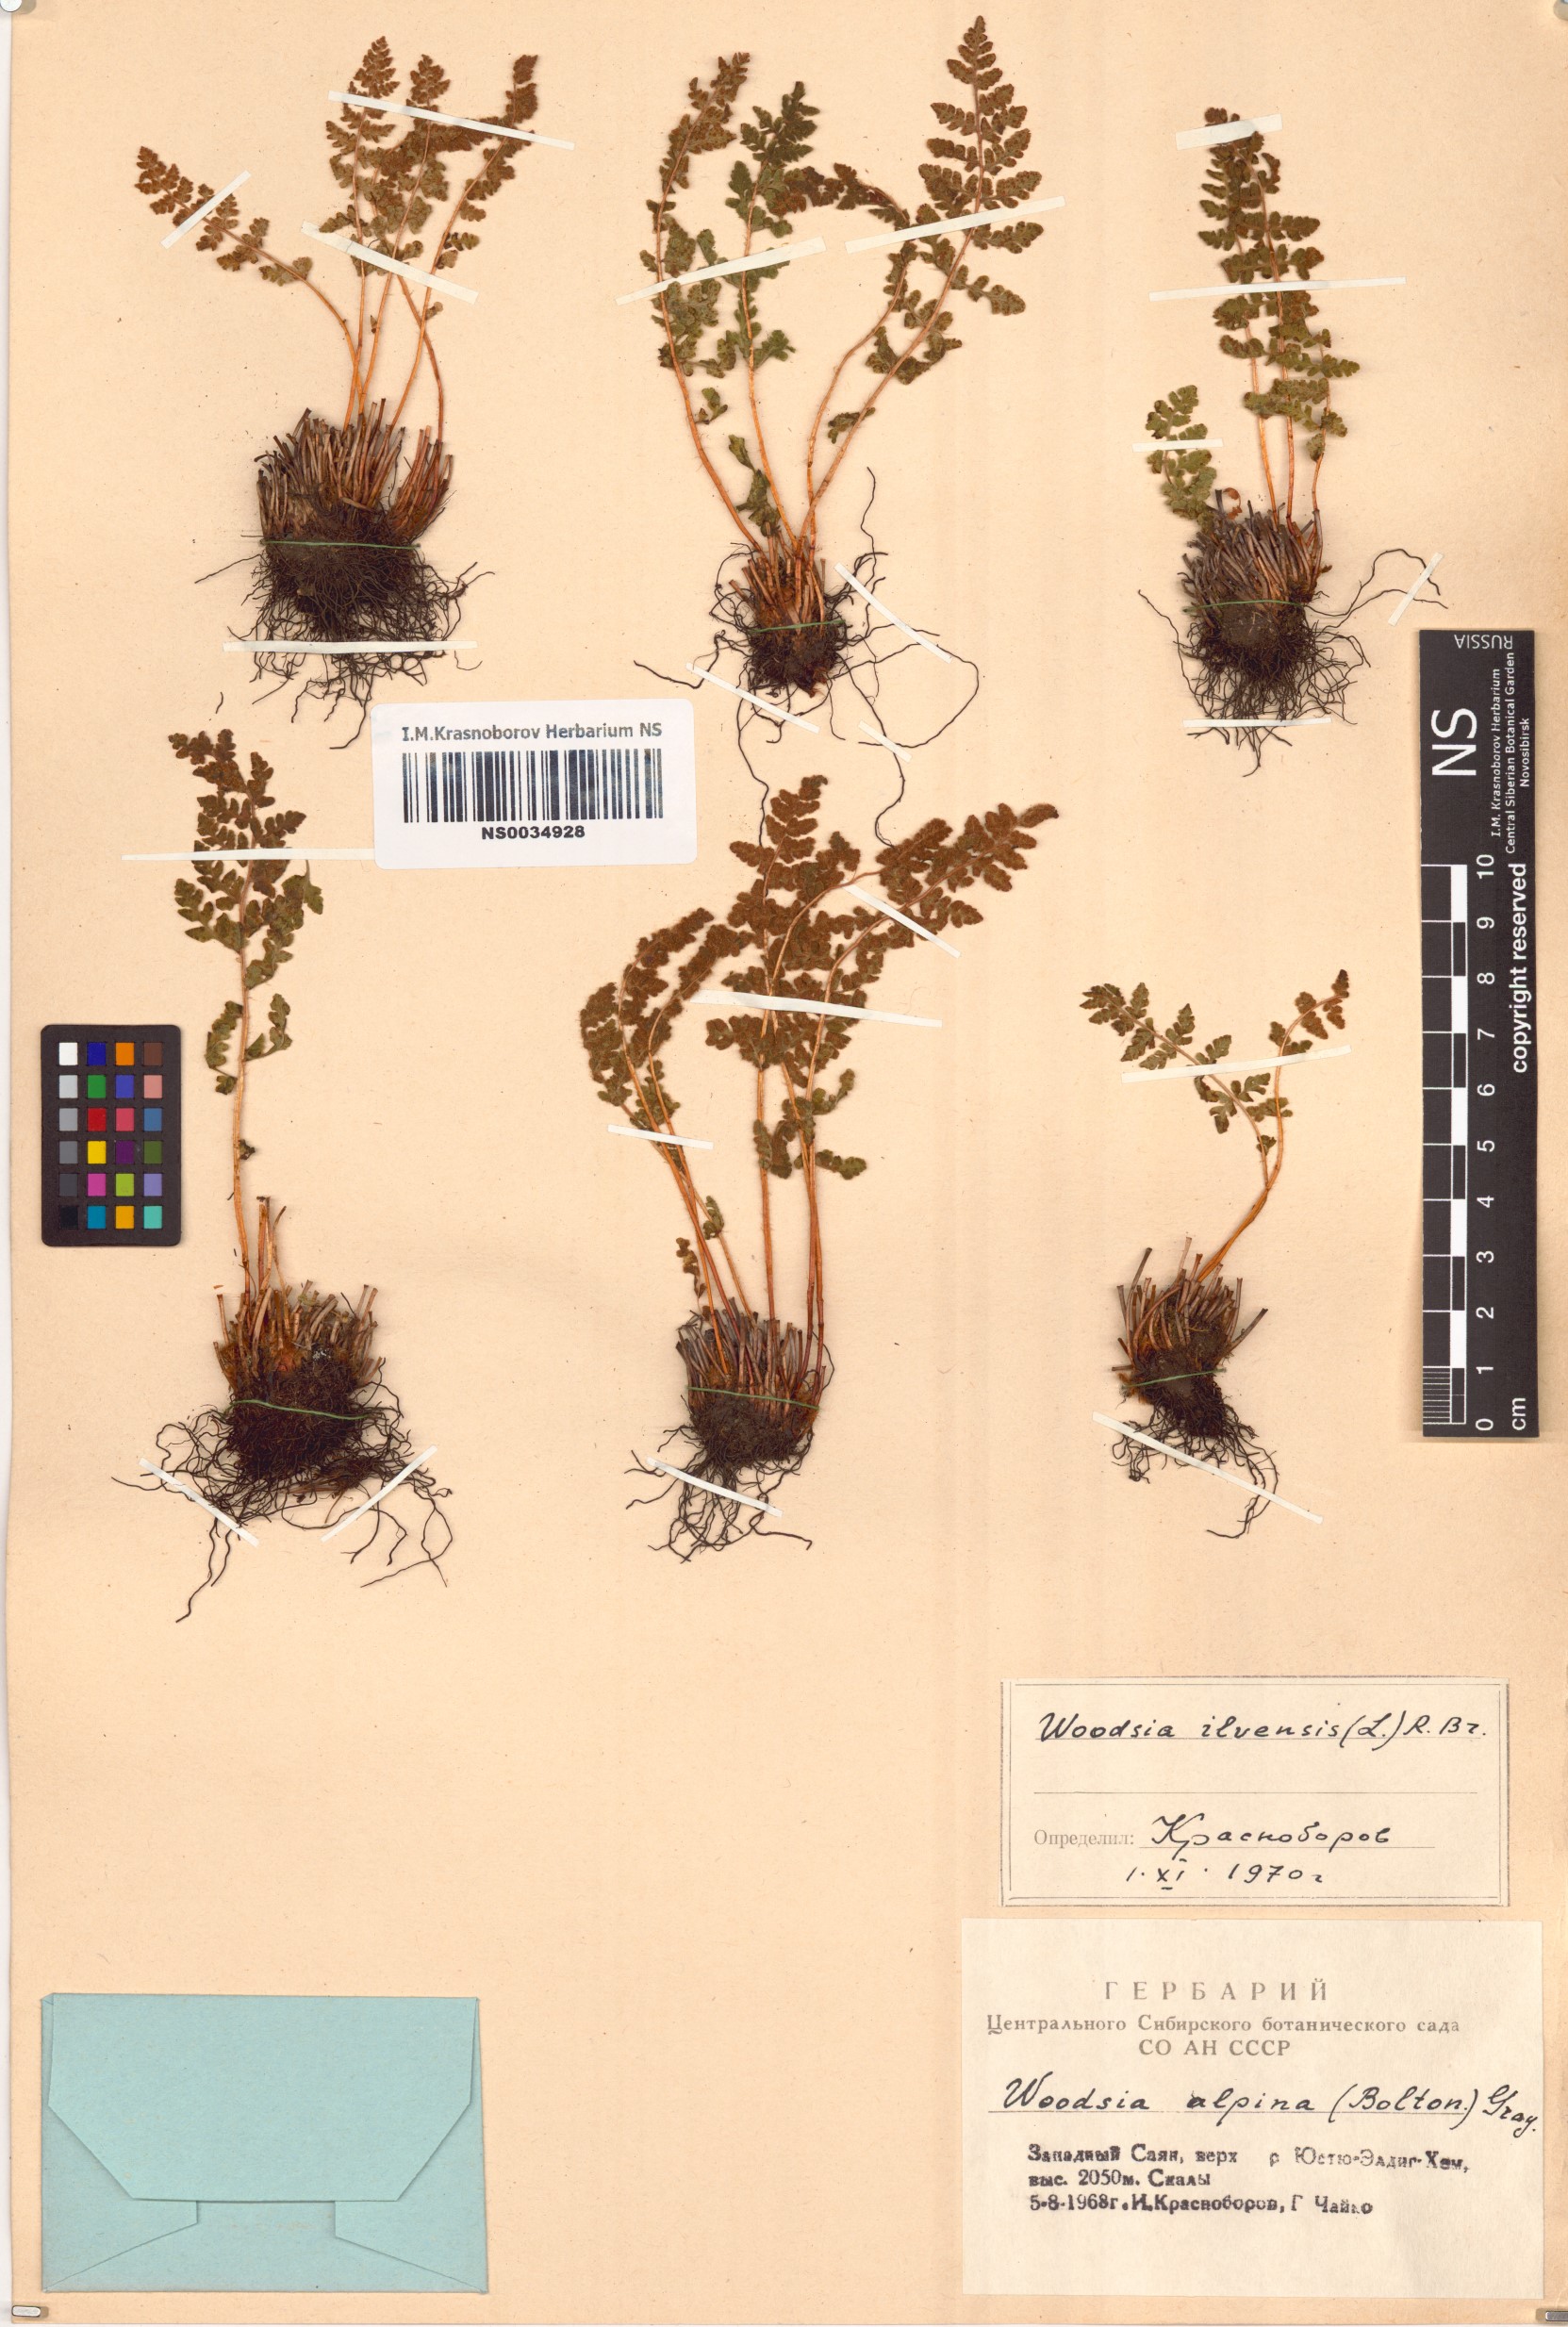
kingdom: Plantae
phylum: Tracheophyta
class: Polypodiopsida
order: Polypodiales
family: Woodsiaceae
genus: Woodsia
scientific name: Woodsia ilvensis
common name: Fragrant woodsia
